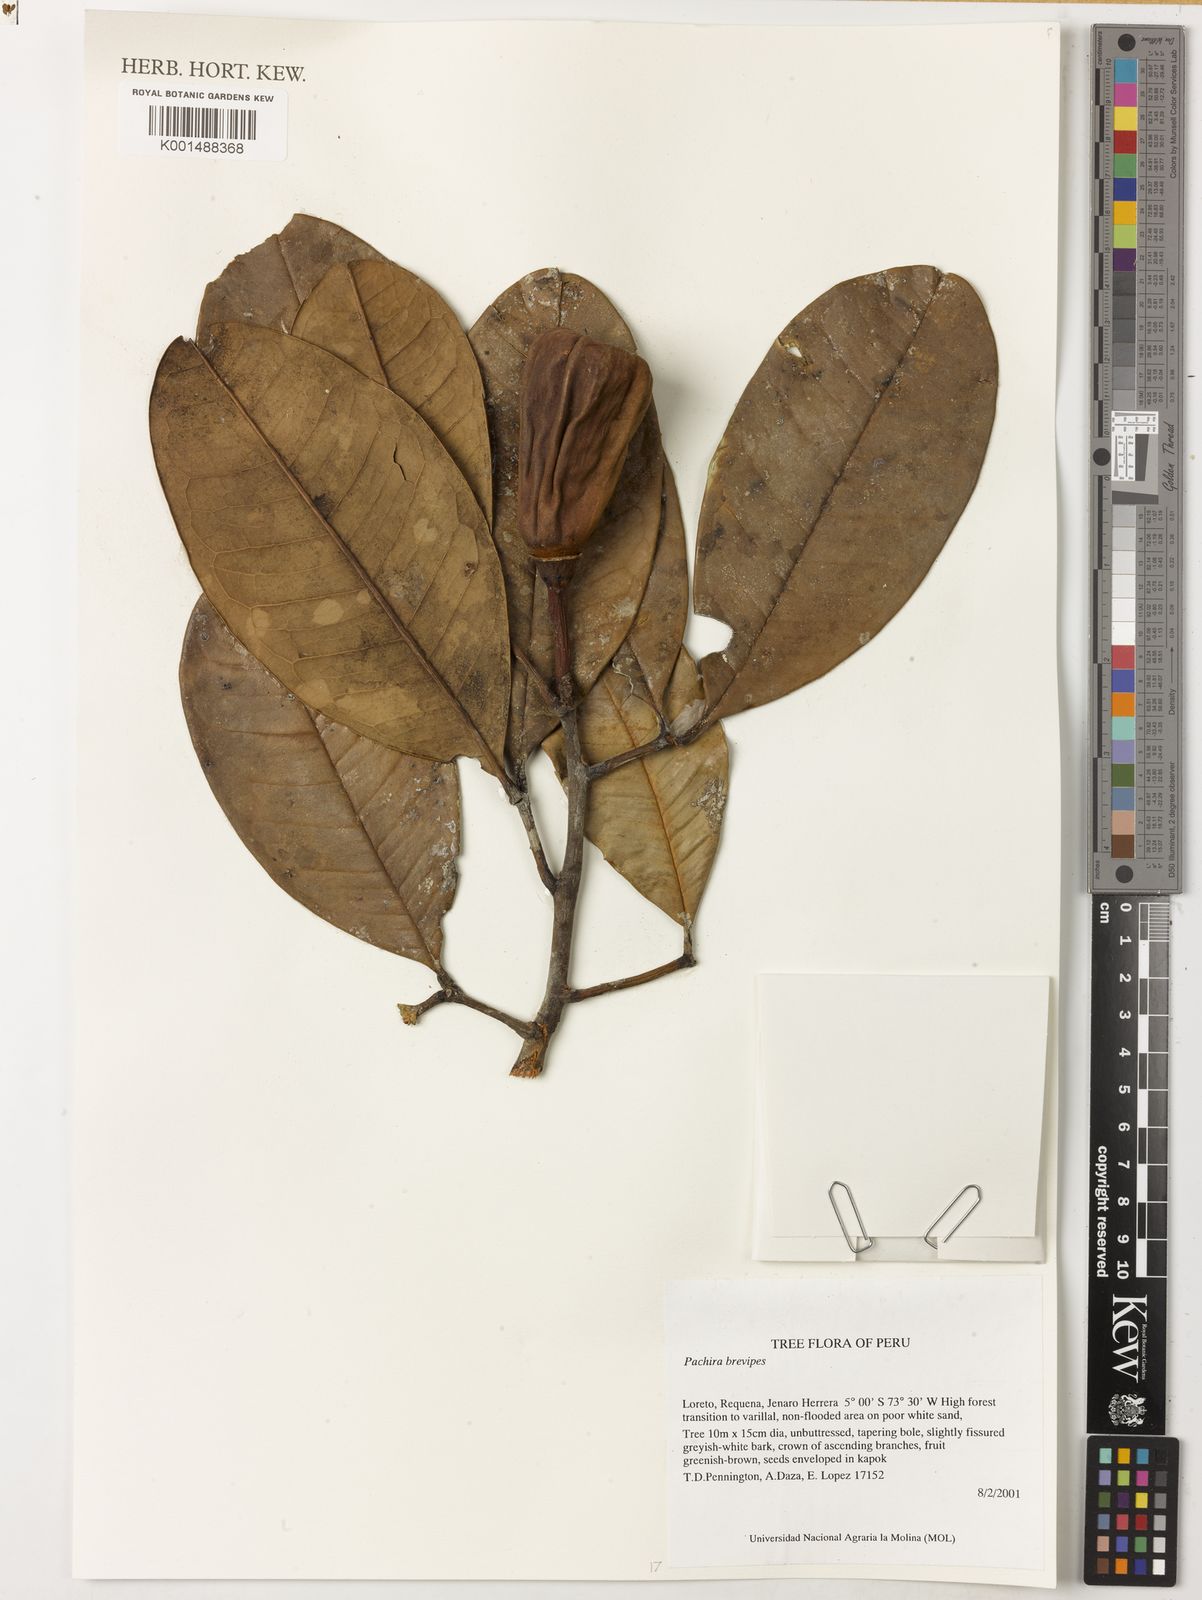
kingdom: Plantae
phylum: Tracheophyta
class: Magnoliopsida
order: Malvales
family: Malvaceae
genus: Pachira
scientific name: Pachira brevipes
